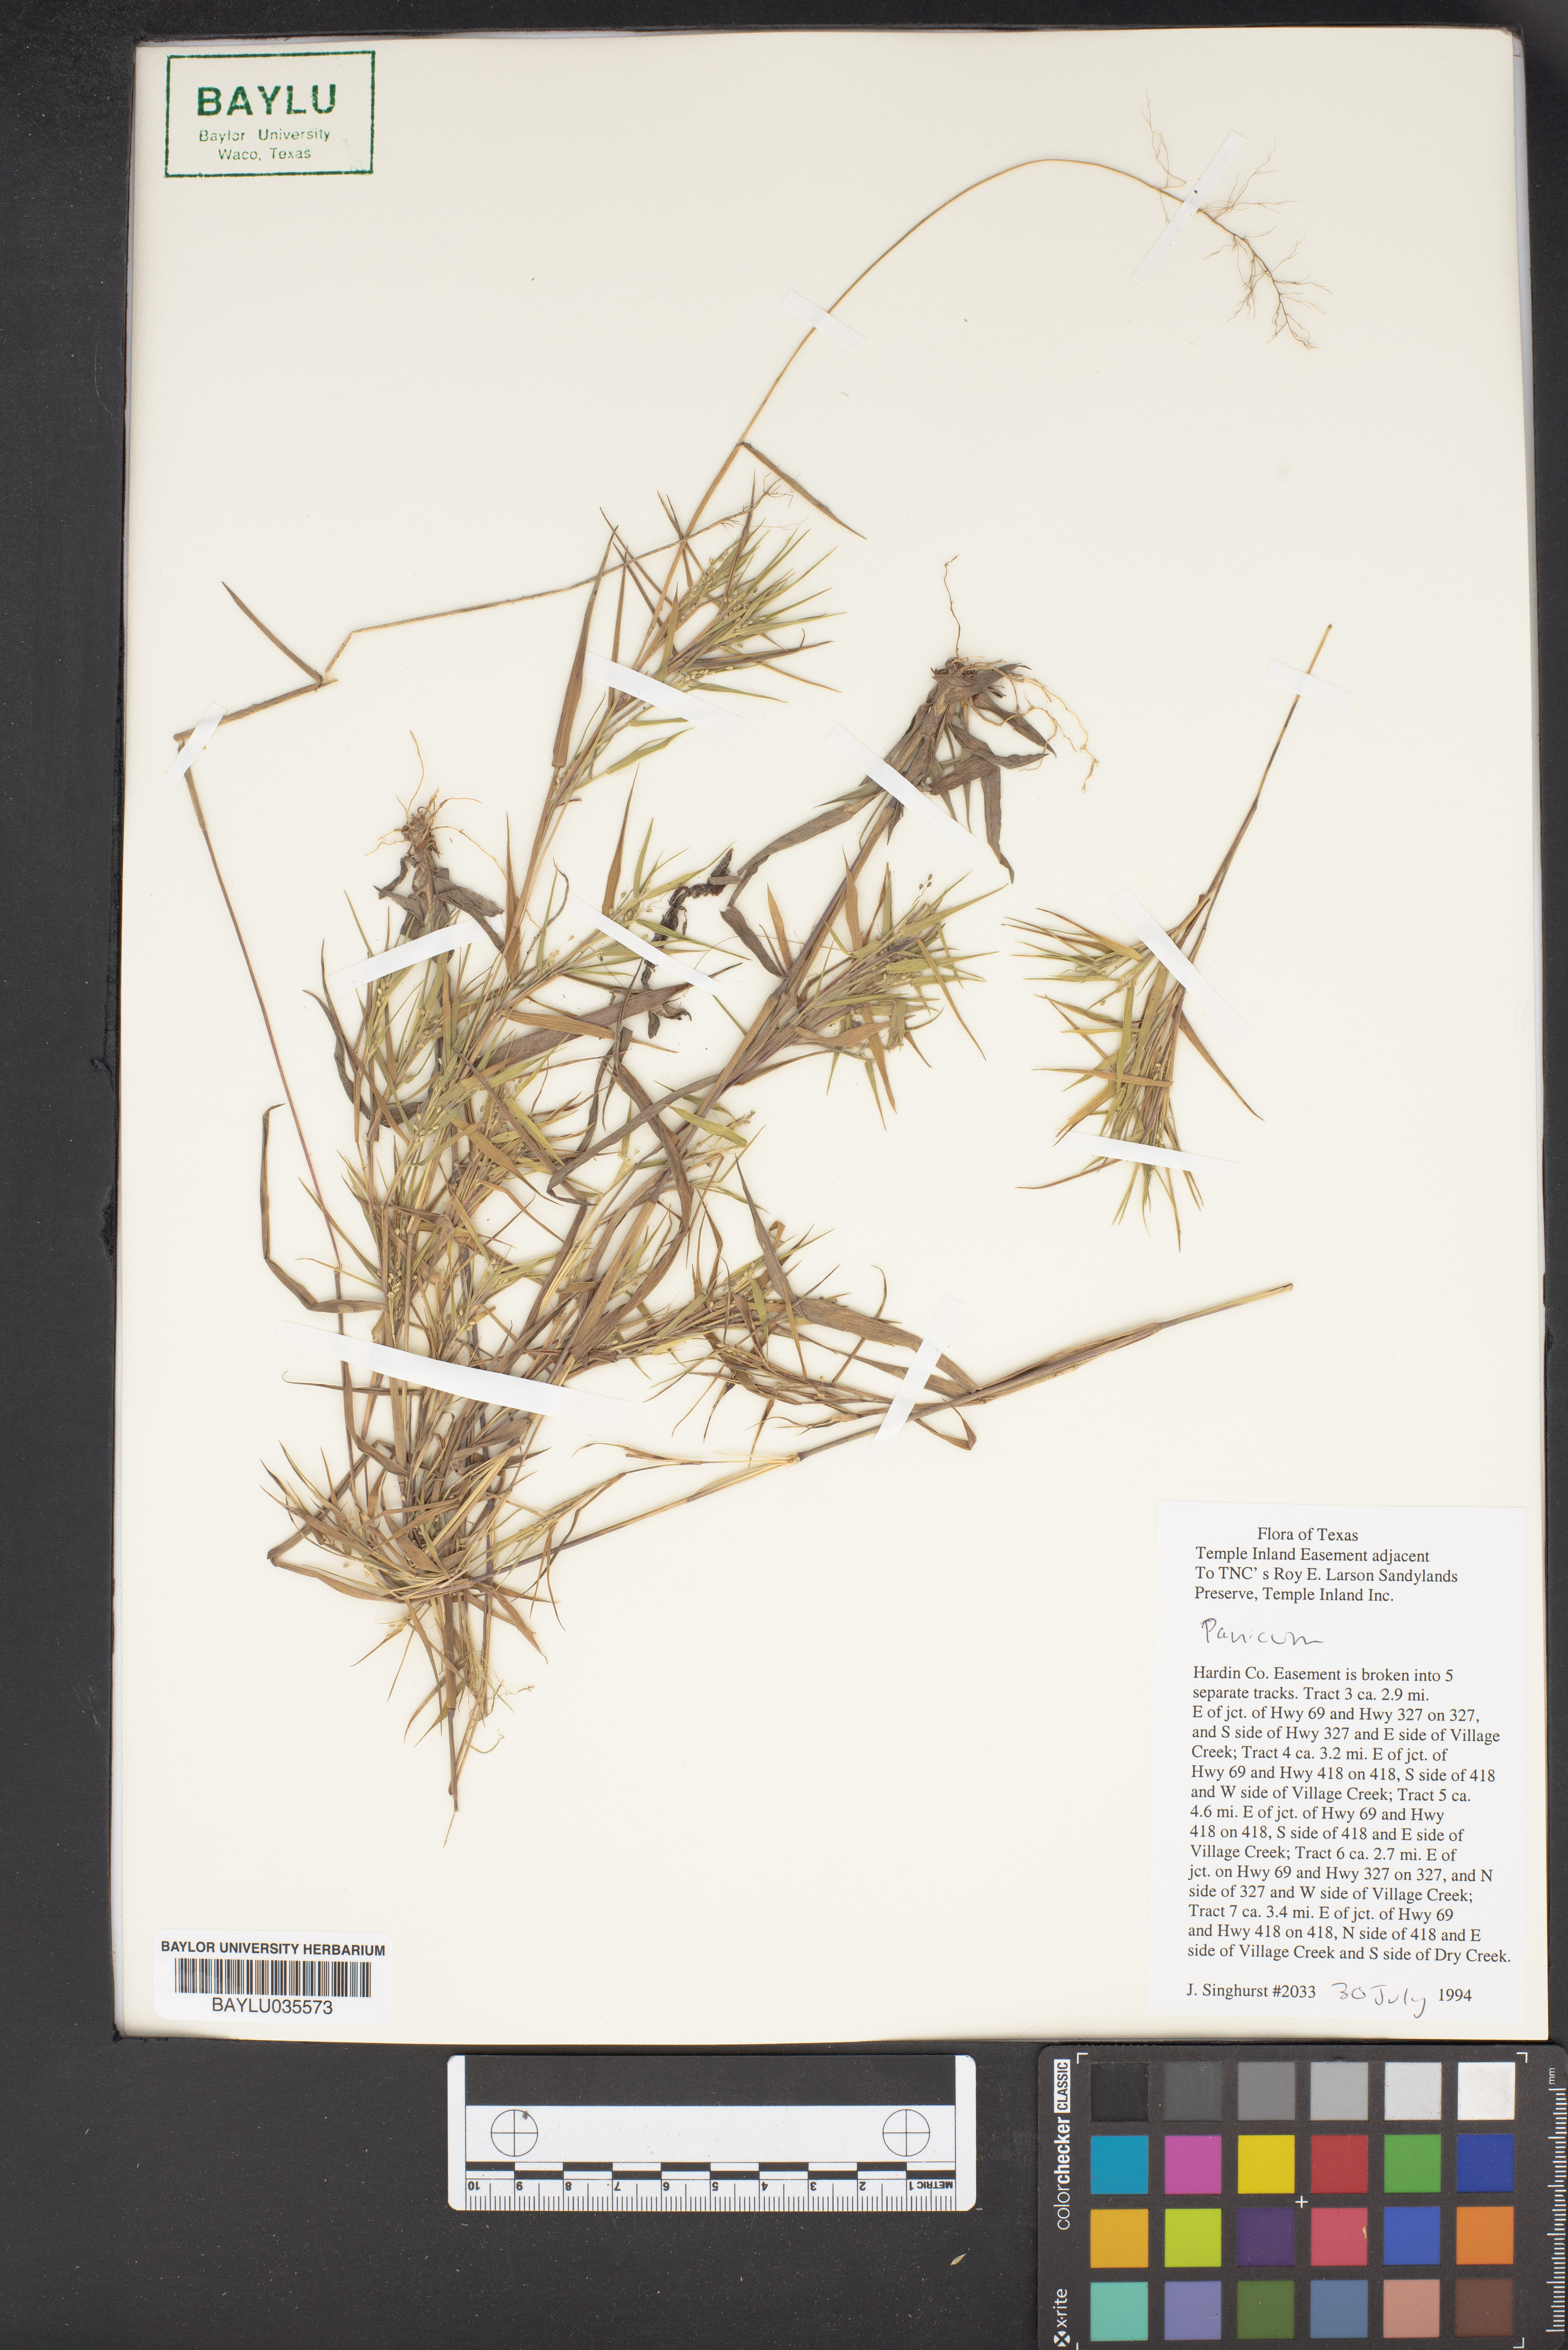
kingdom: Plantae
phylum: Tracheophyta
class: Liliopsida
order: Poales
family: Poaceae
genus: Panicum
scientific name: Panicum
